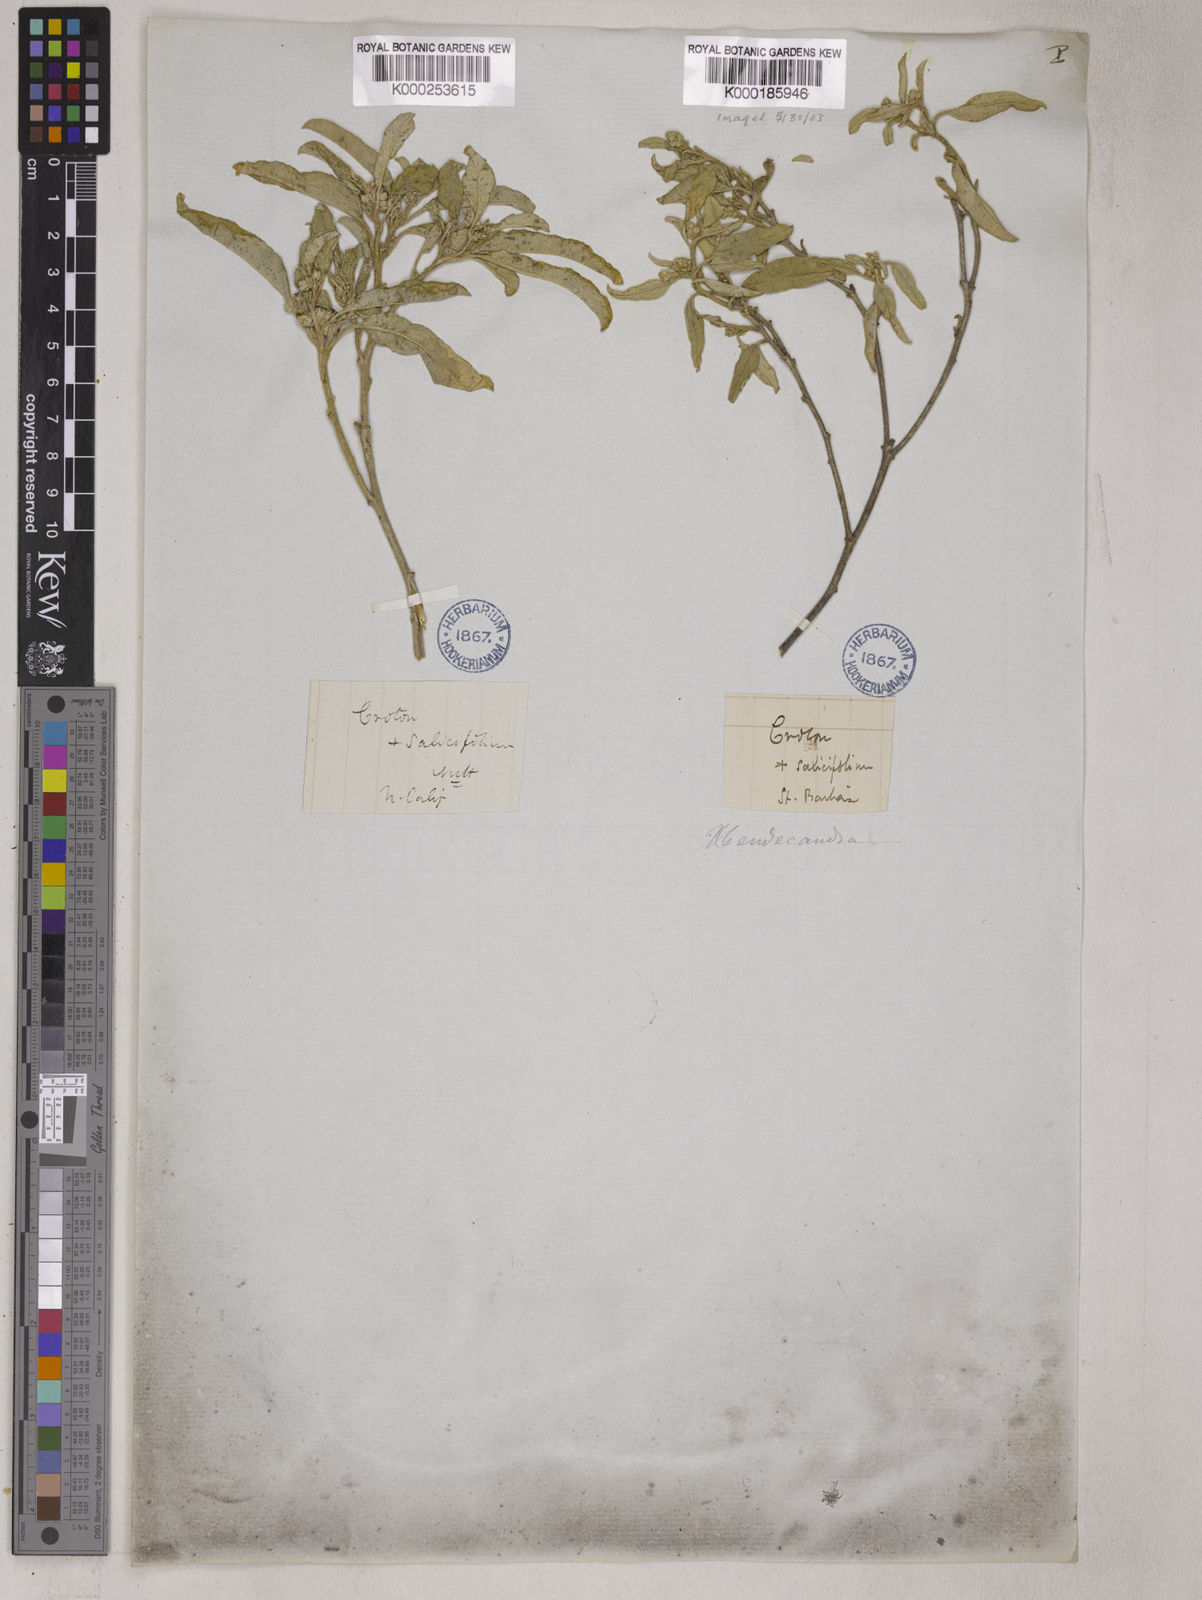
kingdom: Plantae
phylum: Tracheophyta
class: Magnoliopsida
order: Malpighiales
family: Euphorbiaceae
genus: Croton
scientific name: Croton
